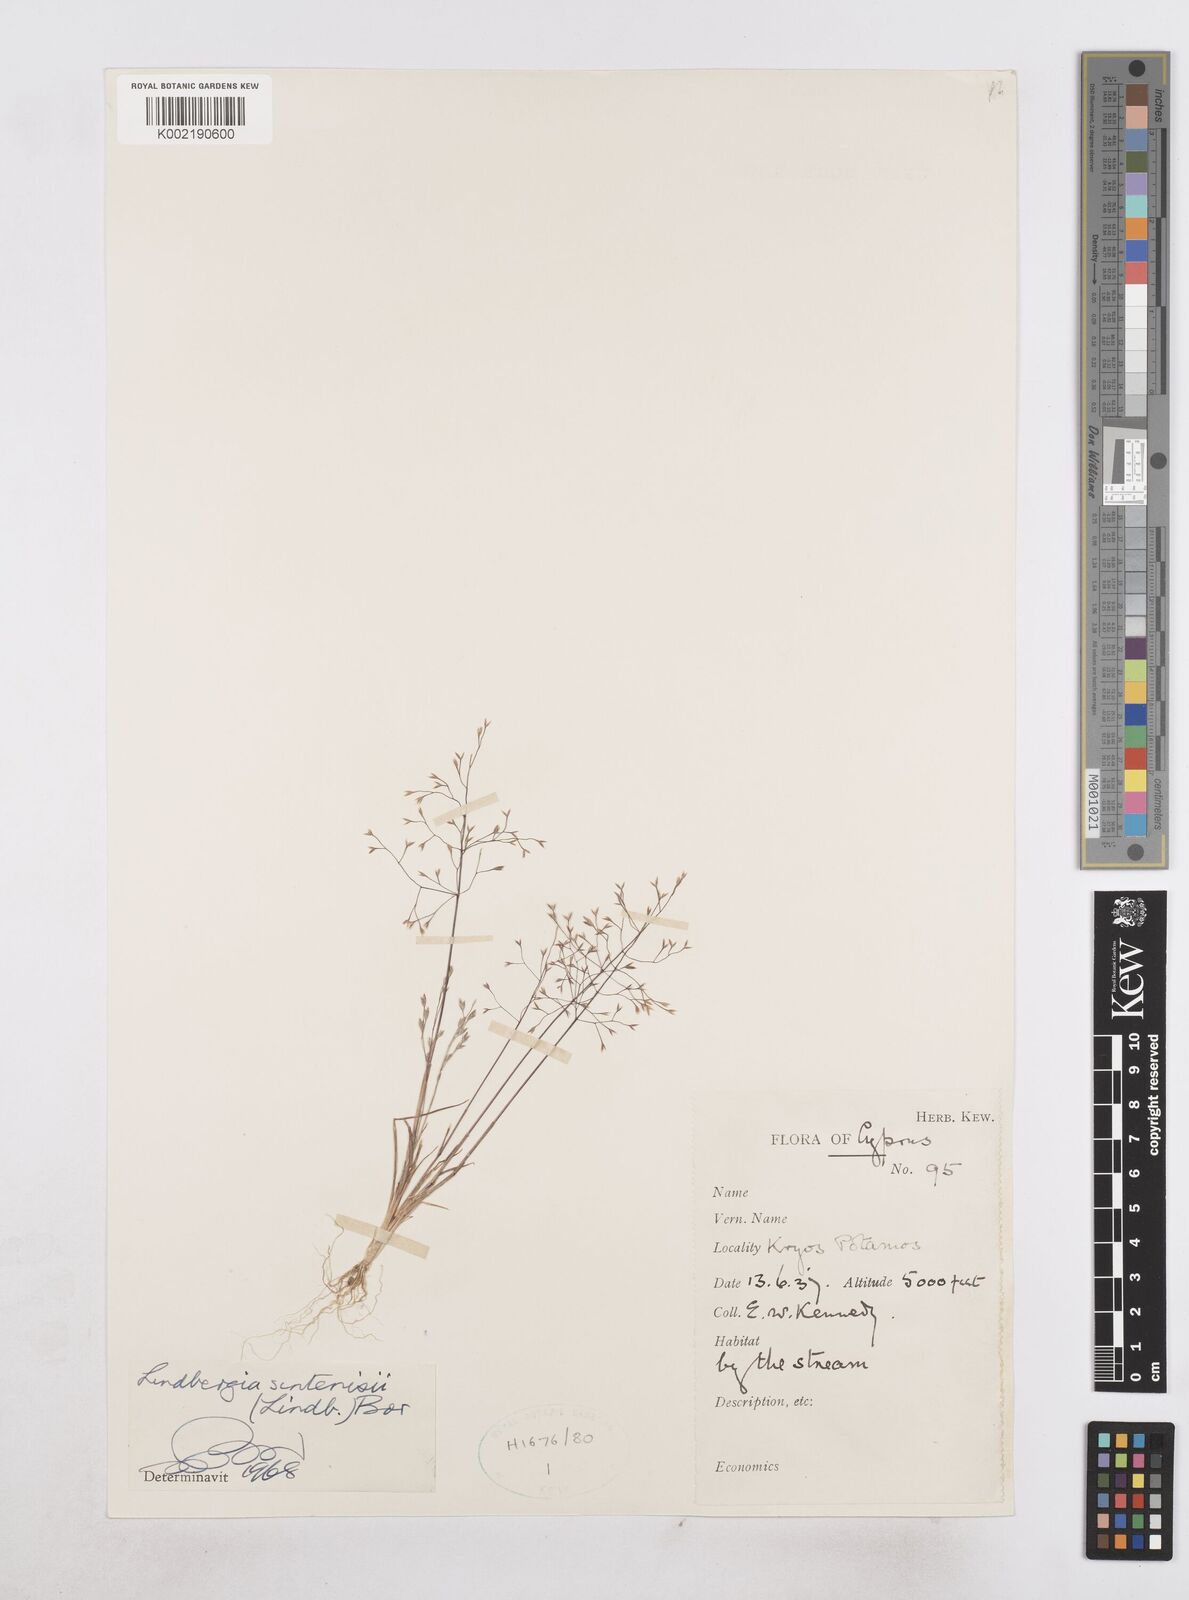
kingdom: Plantae
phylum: Tracheophyta
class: Liliopsida
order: Poales
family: Poaceae
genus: Poa
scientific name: Poa sintenisii
